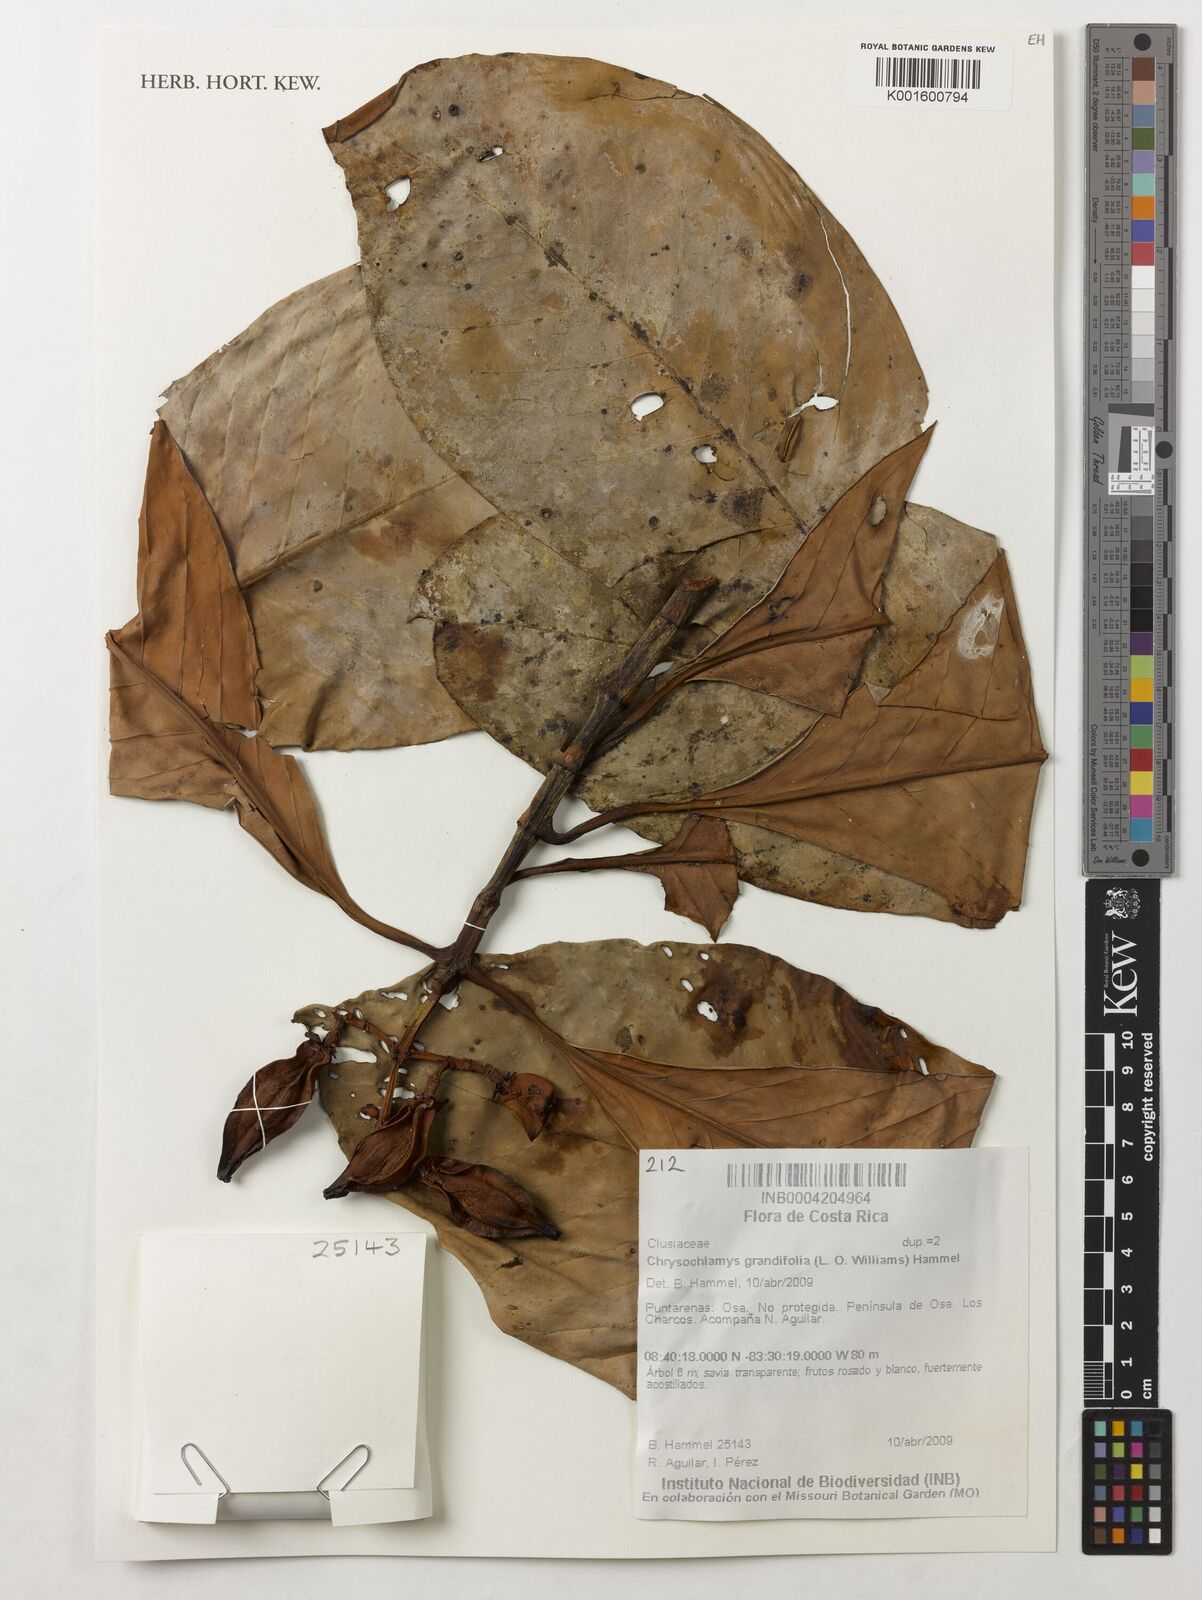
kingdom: Plantae
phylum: Tracheophyta
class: Magnoliopsida
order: Malpighiales
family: Clusiaceae
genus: Chrysochlamys
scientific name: Chrysochlamys myrcioides
